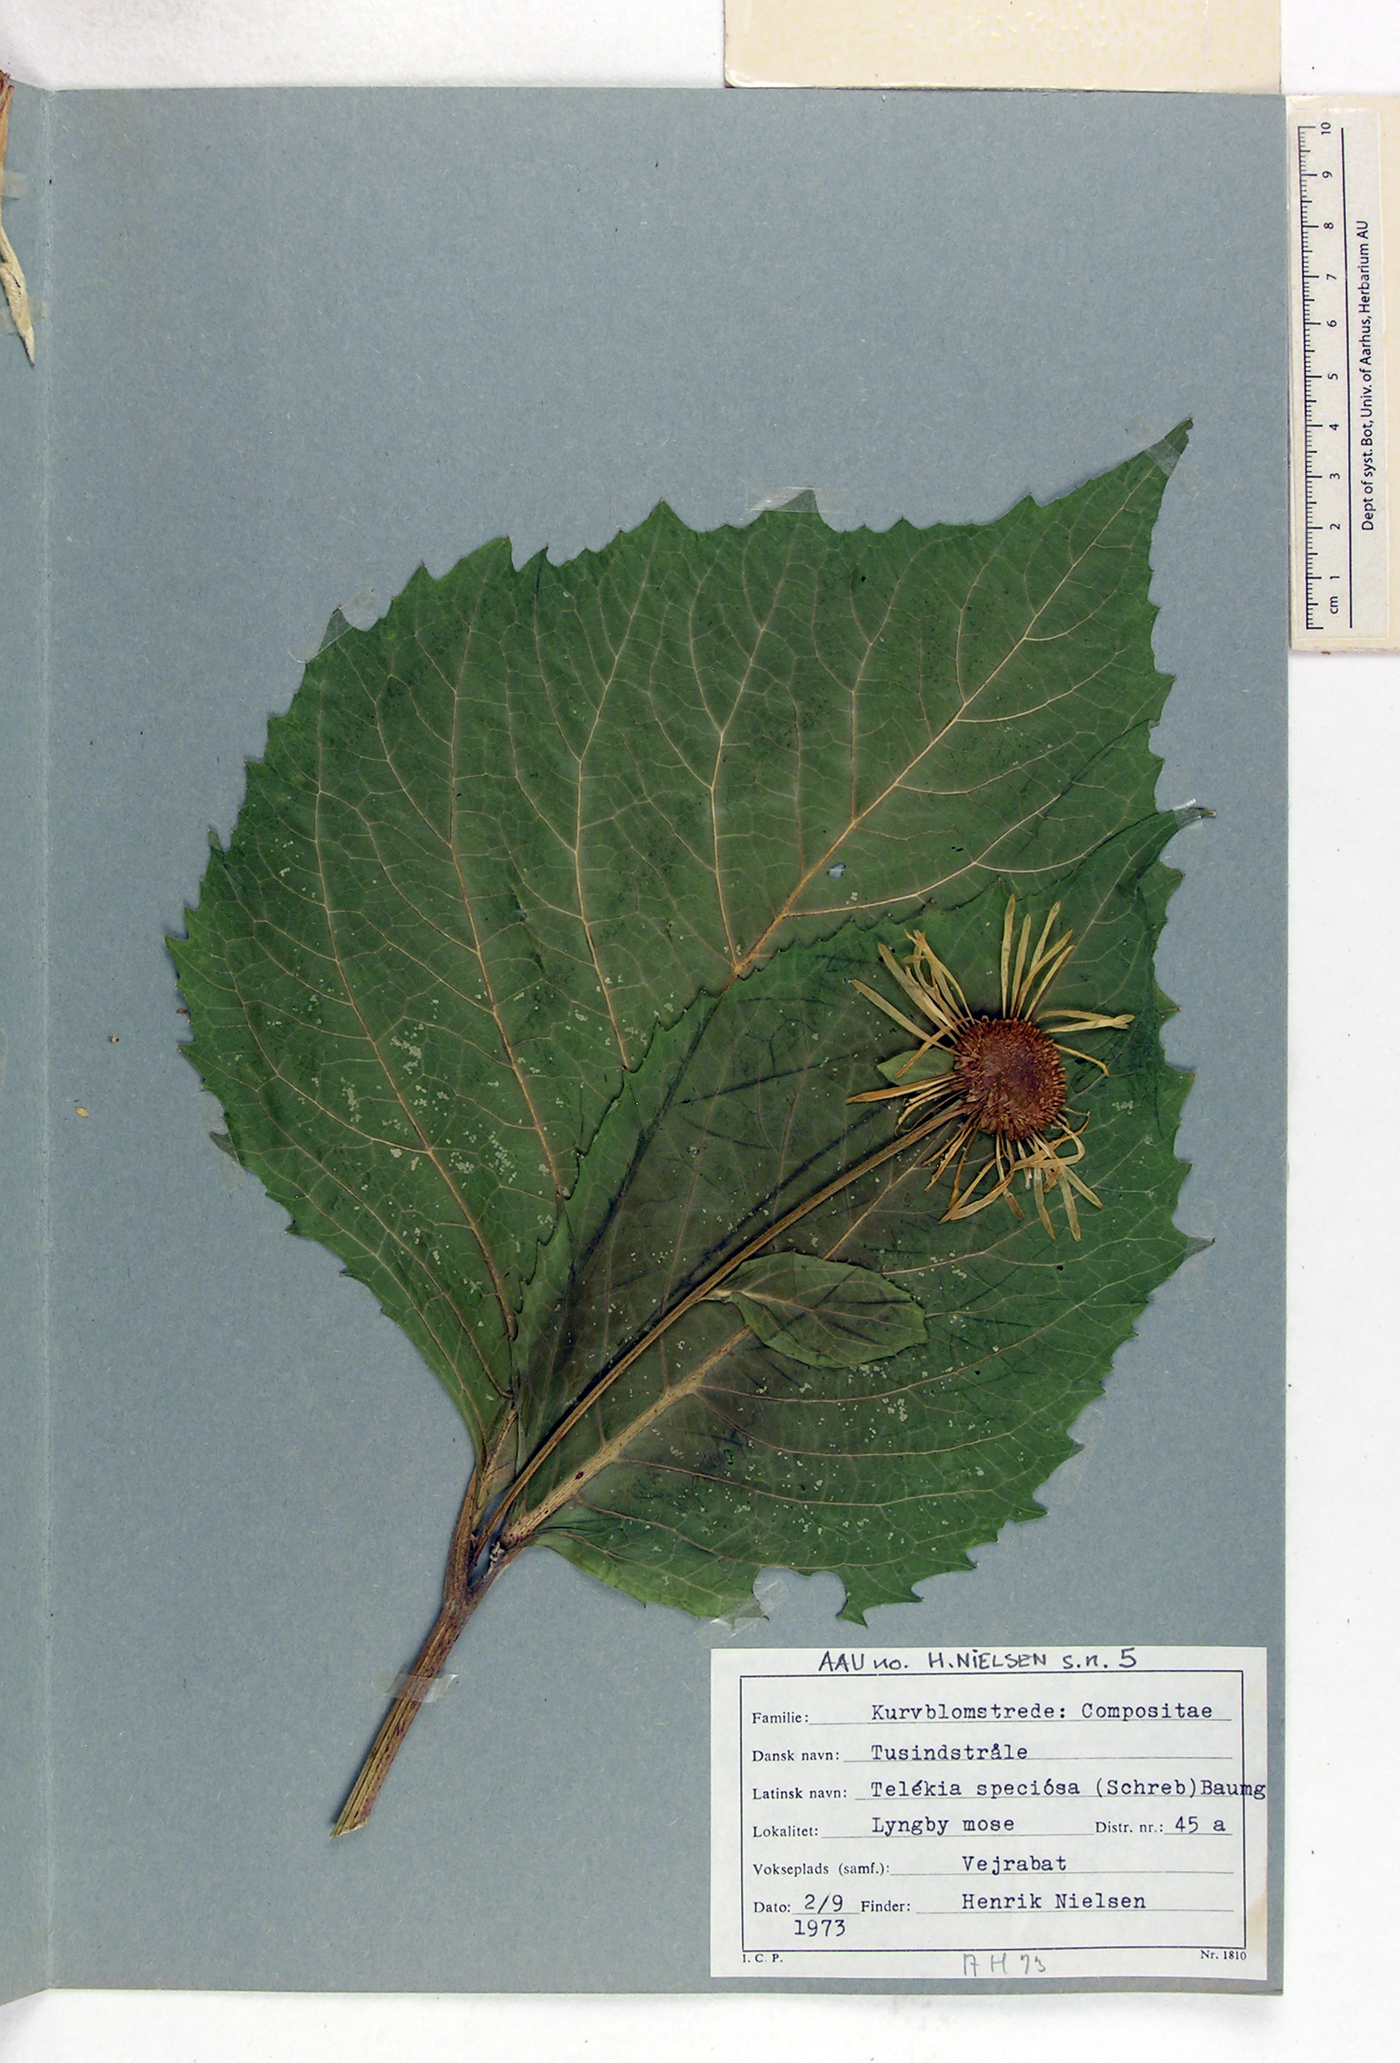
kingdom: Plantae
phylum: Tracheophyta
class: Magnoliopsida
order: Asterales
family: Asteraceae
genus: Telekia
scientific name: Telekia speciosa
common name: Yellow oxeye
